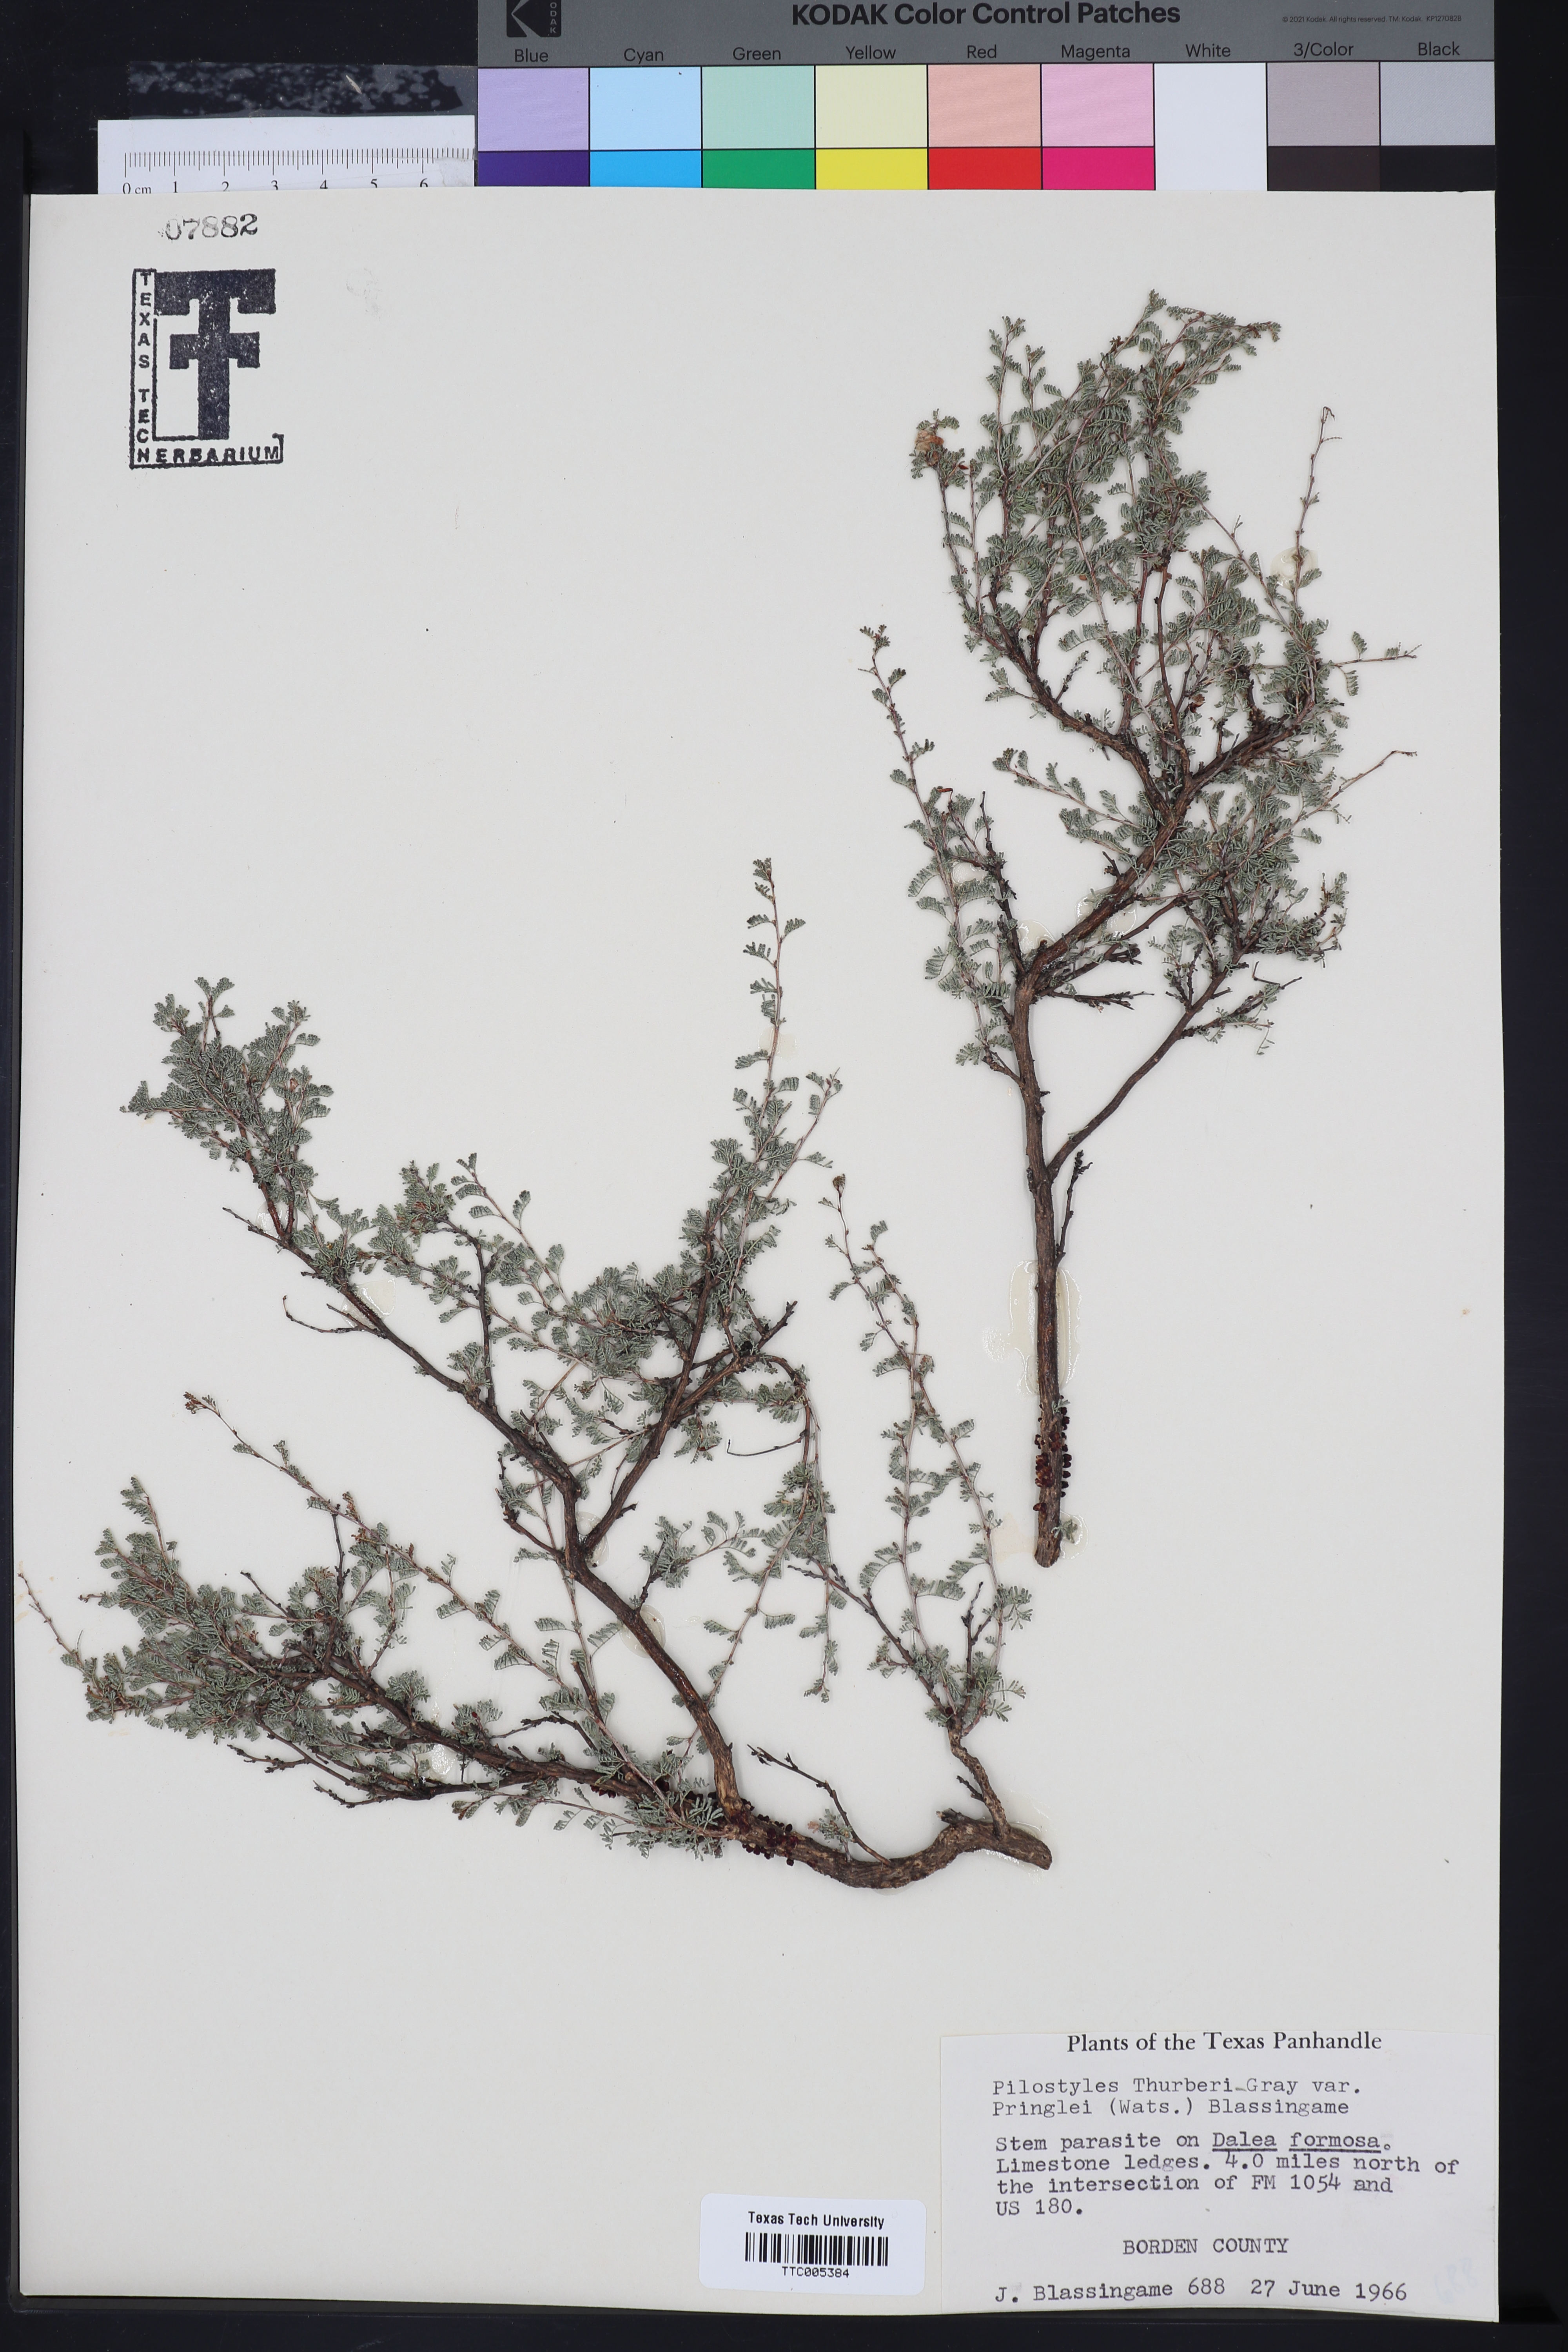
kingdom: Plantae
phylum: Tracheophyta
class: Magnoliopsida
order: Cucurbitales
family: Apodanthaceae
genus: Pilostyles
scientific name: Pilostyles thurberi
